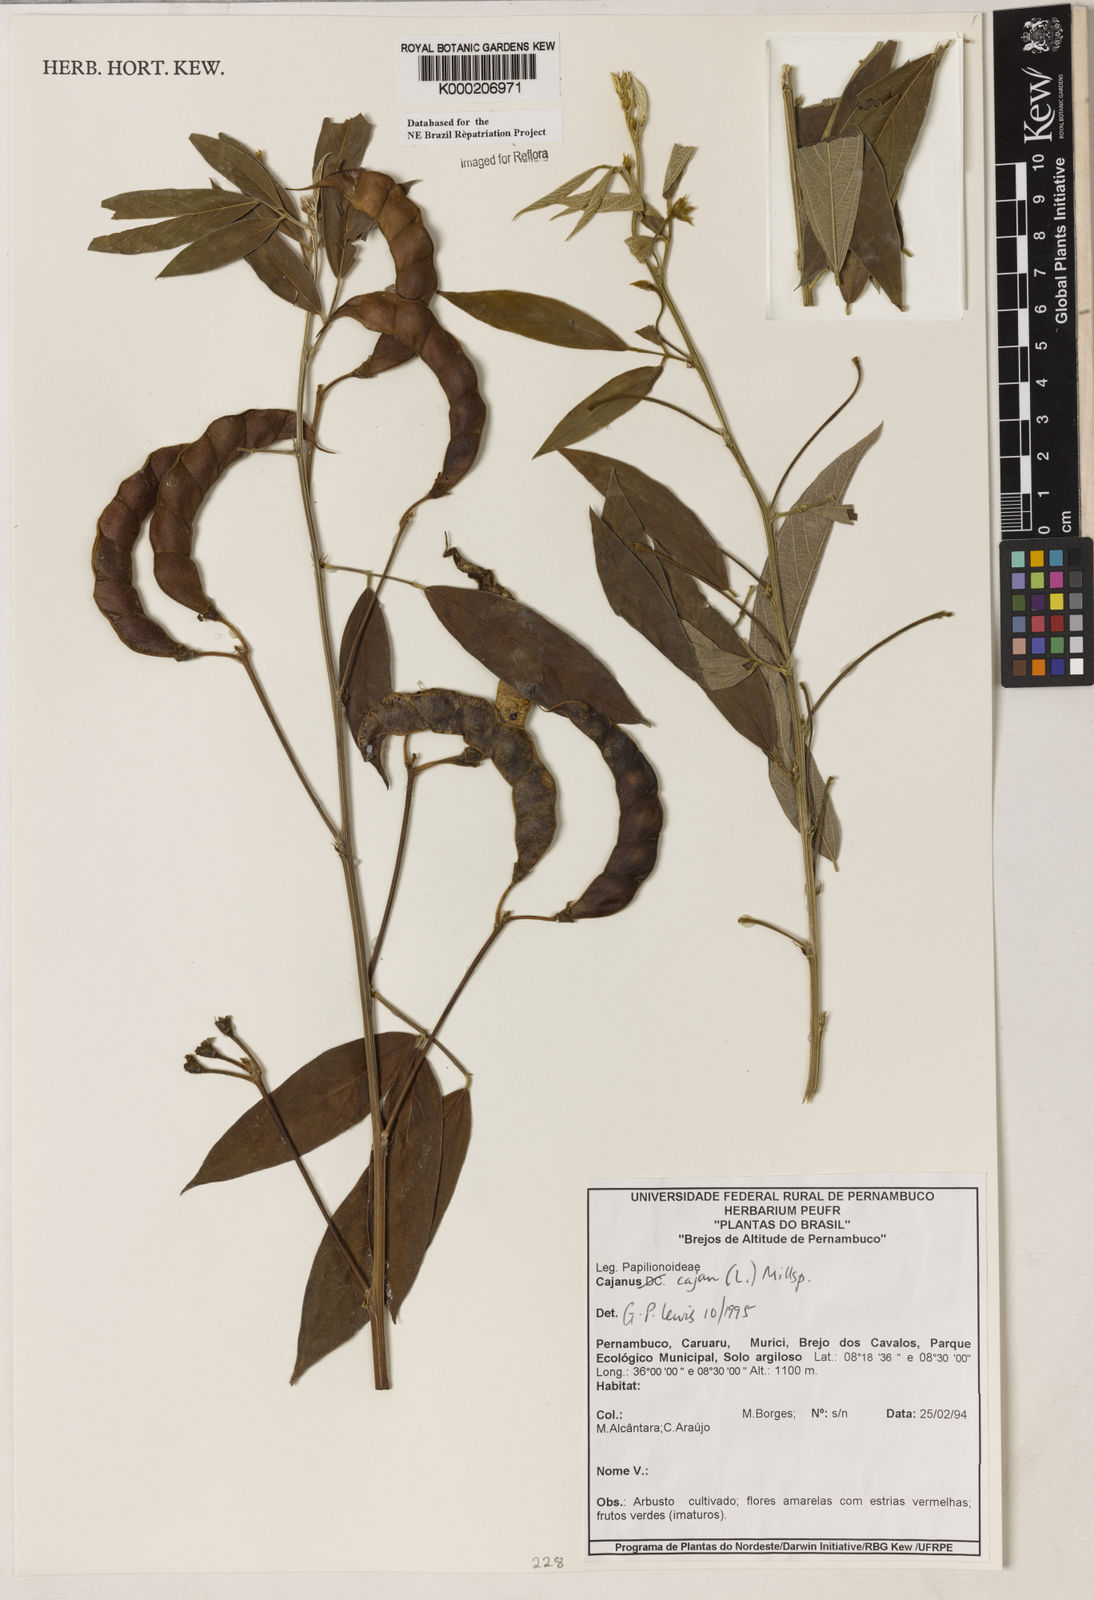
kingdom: Plantae
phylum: Tracheophyta
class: Magnoliopsida
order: Fabales
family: Fabaceae
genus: Cajanus
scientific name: Cajanus
